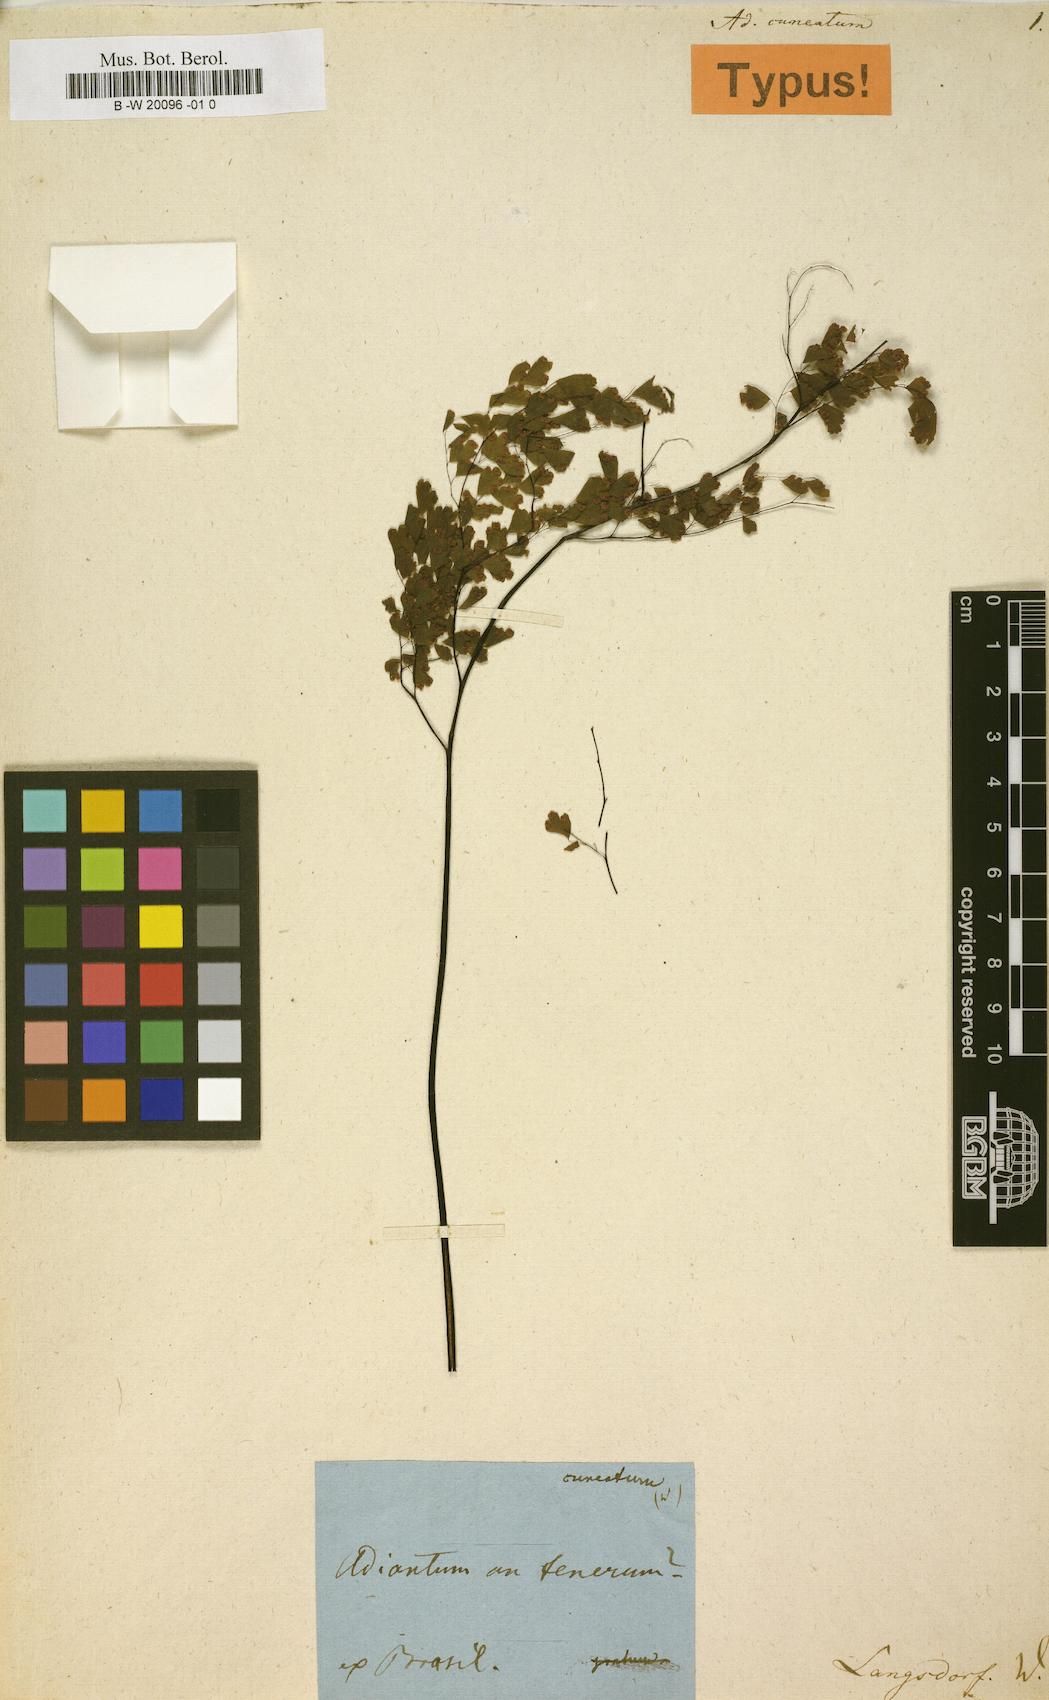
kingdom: Plantae
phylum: Tracheophyta
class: Polypodiopsida
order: Polypodiales
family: Pteridaceae
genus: Adiantum
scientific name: Adiantum raddianum
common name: Delta maidenhair fern
